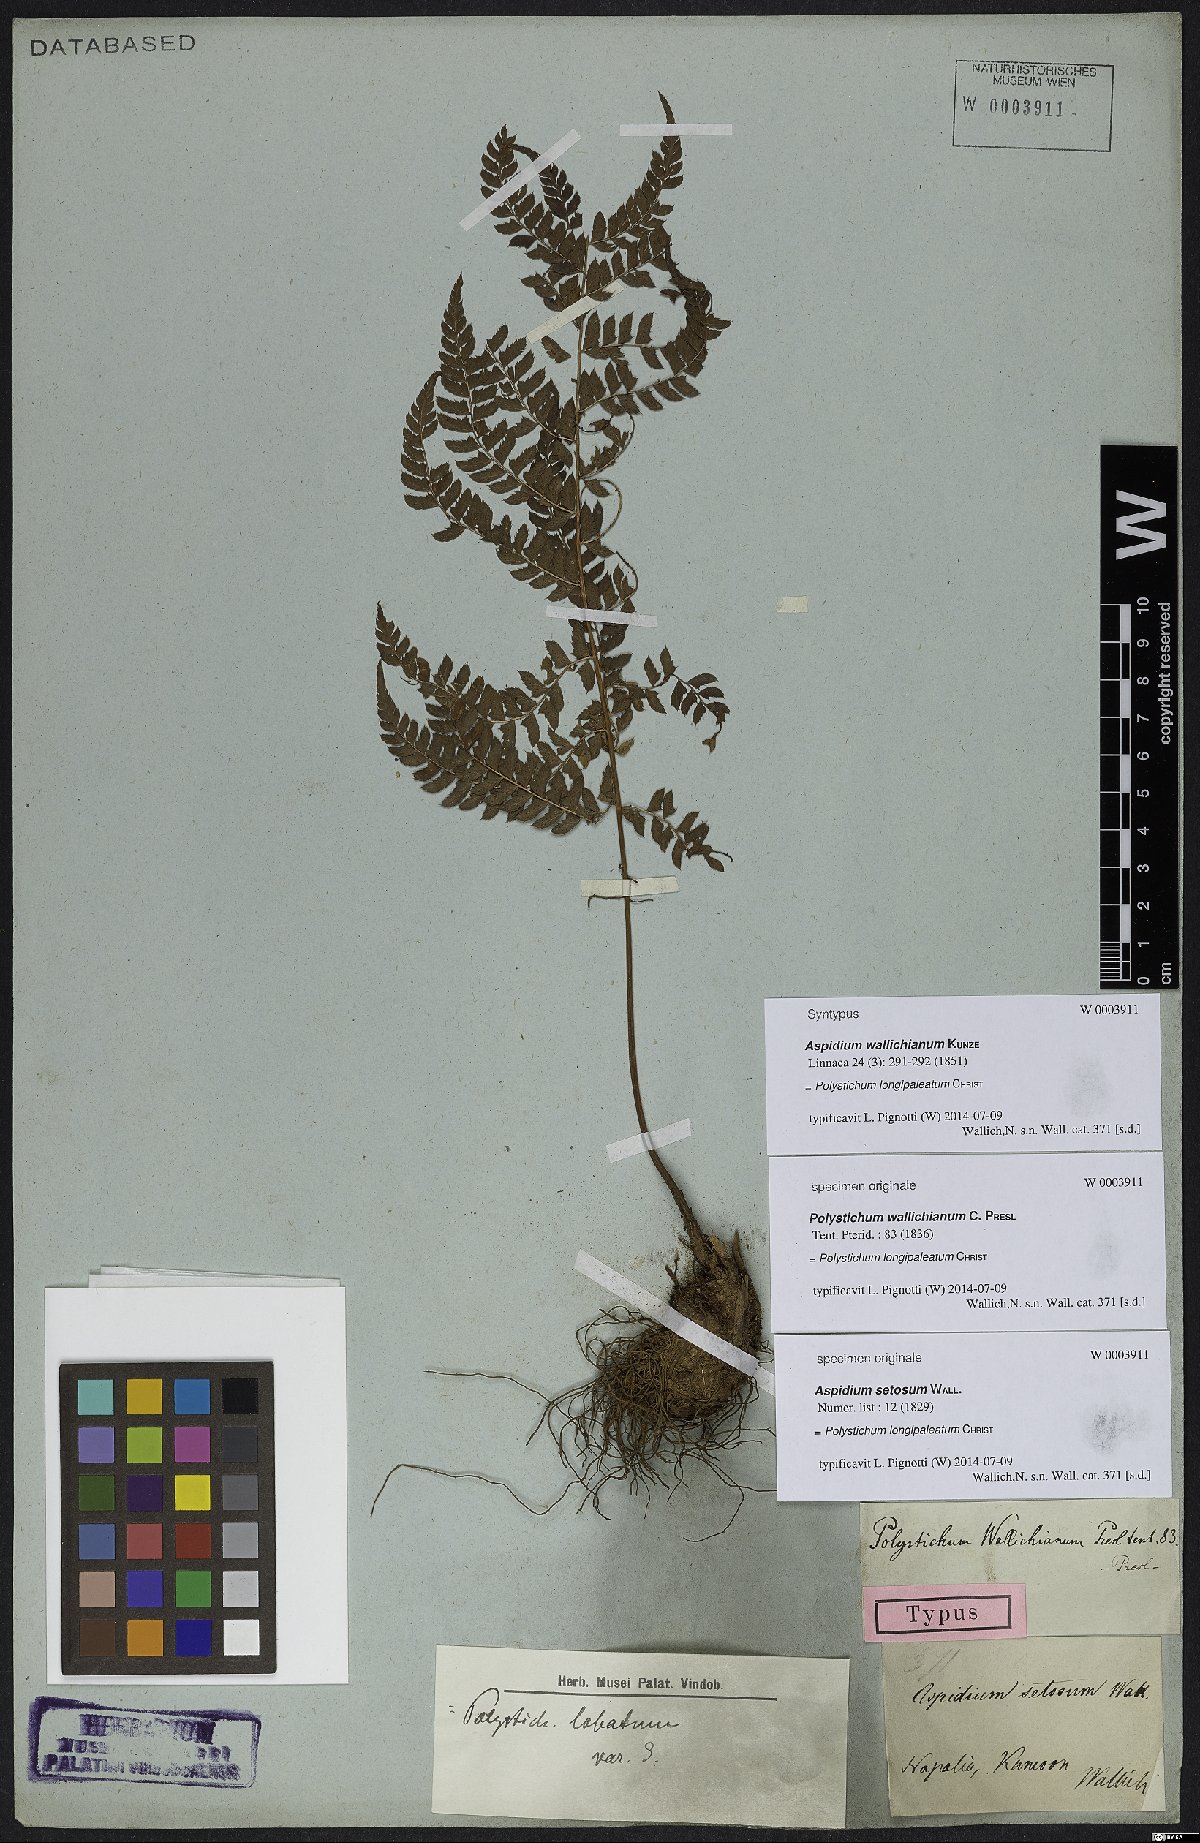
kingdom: Plantae
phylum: Tracheophyta
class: Polypodiopsida
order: Polypodiales
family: Dryopteridaceae
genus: Polystichum
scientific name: Polystichum longipaleatum
